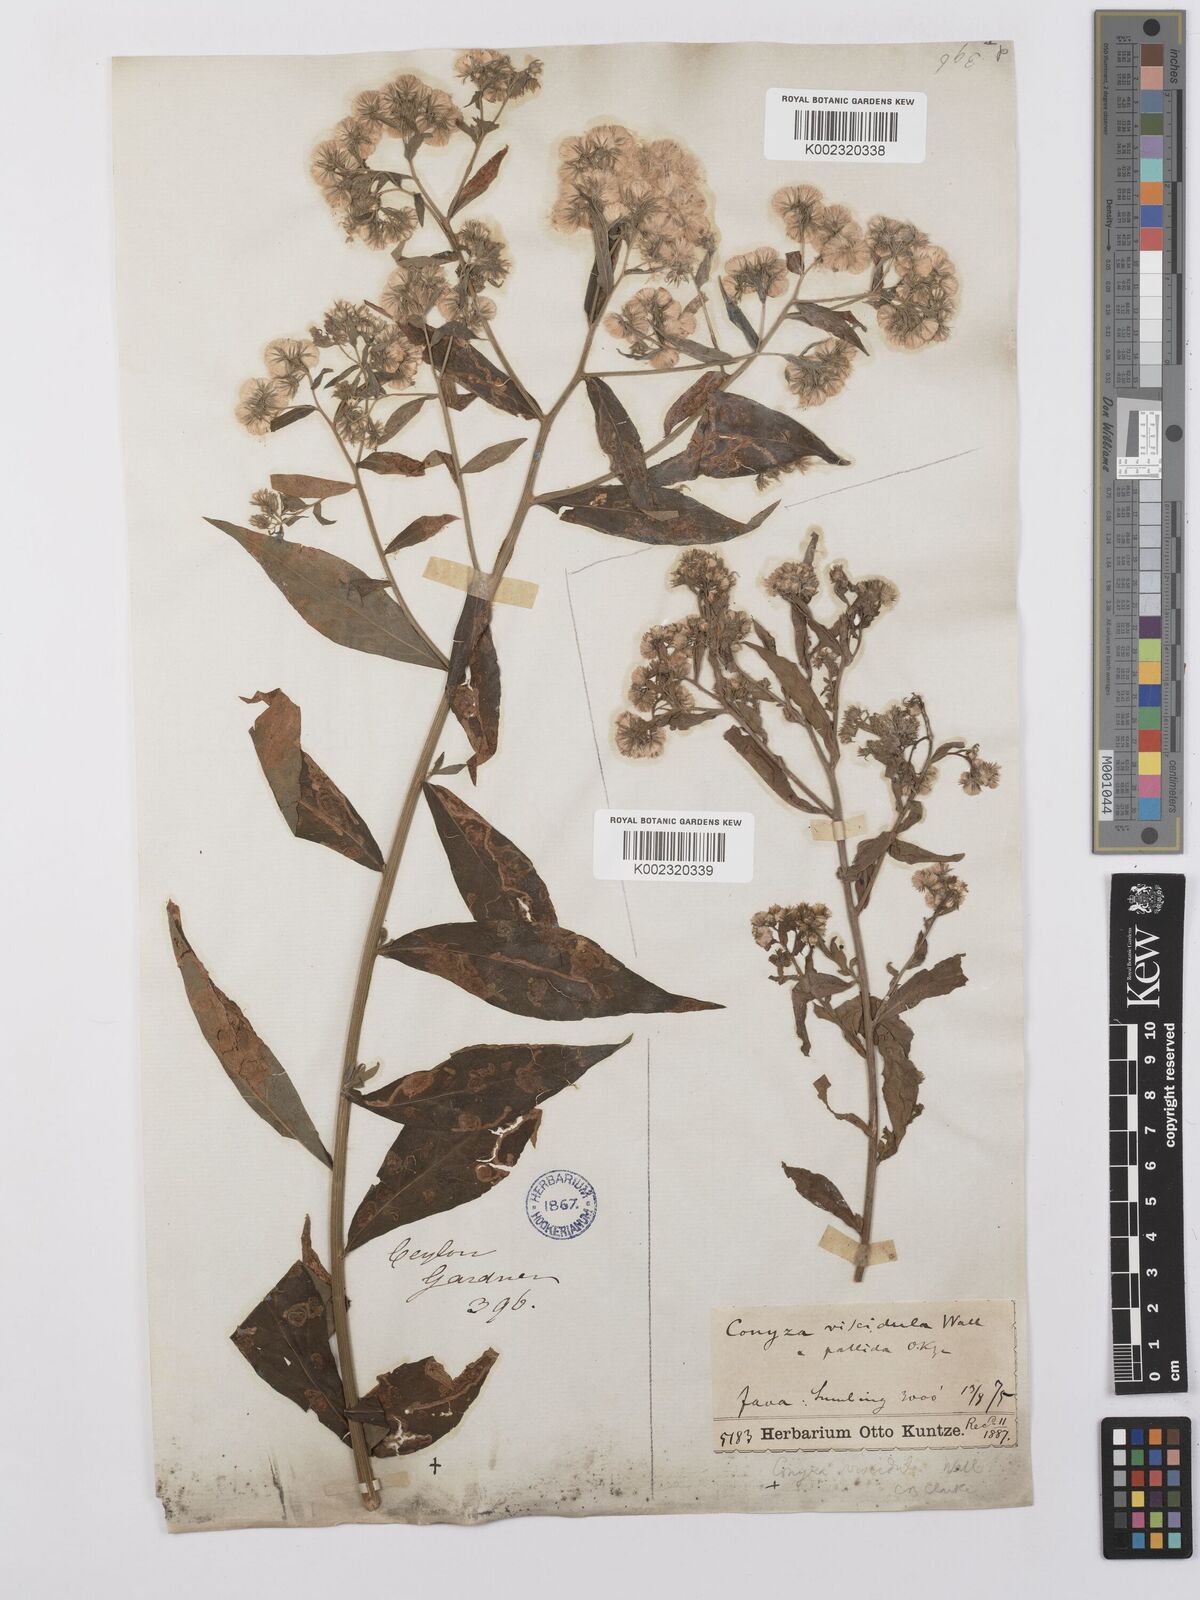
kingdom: Plantae
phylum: Tracheophyta
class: Magnoliopsida
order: Asterales
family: Asteraceae
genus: Eschenbachia
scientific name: Eschenbachia leucantha
